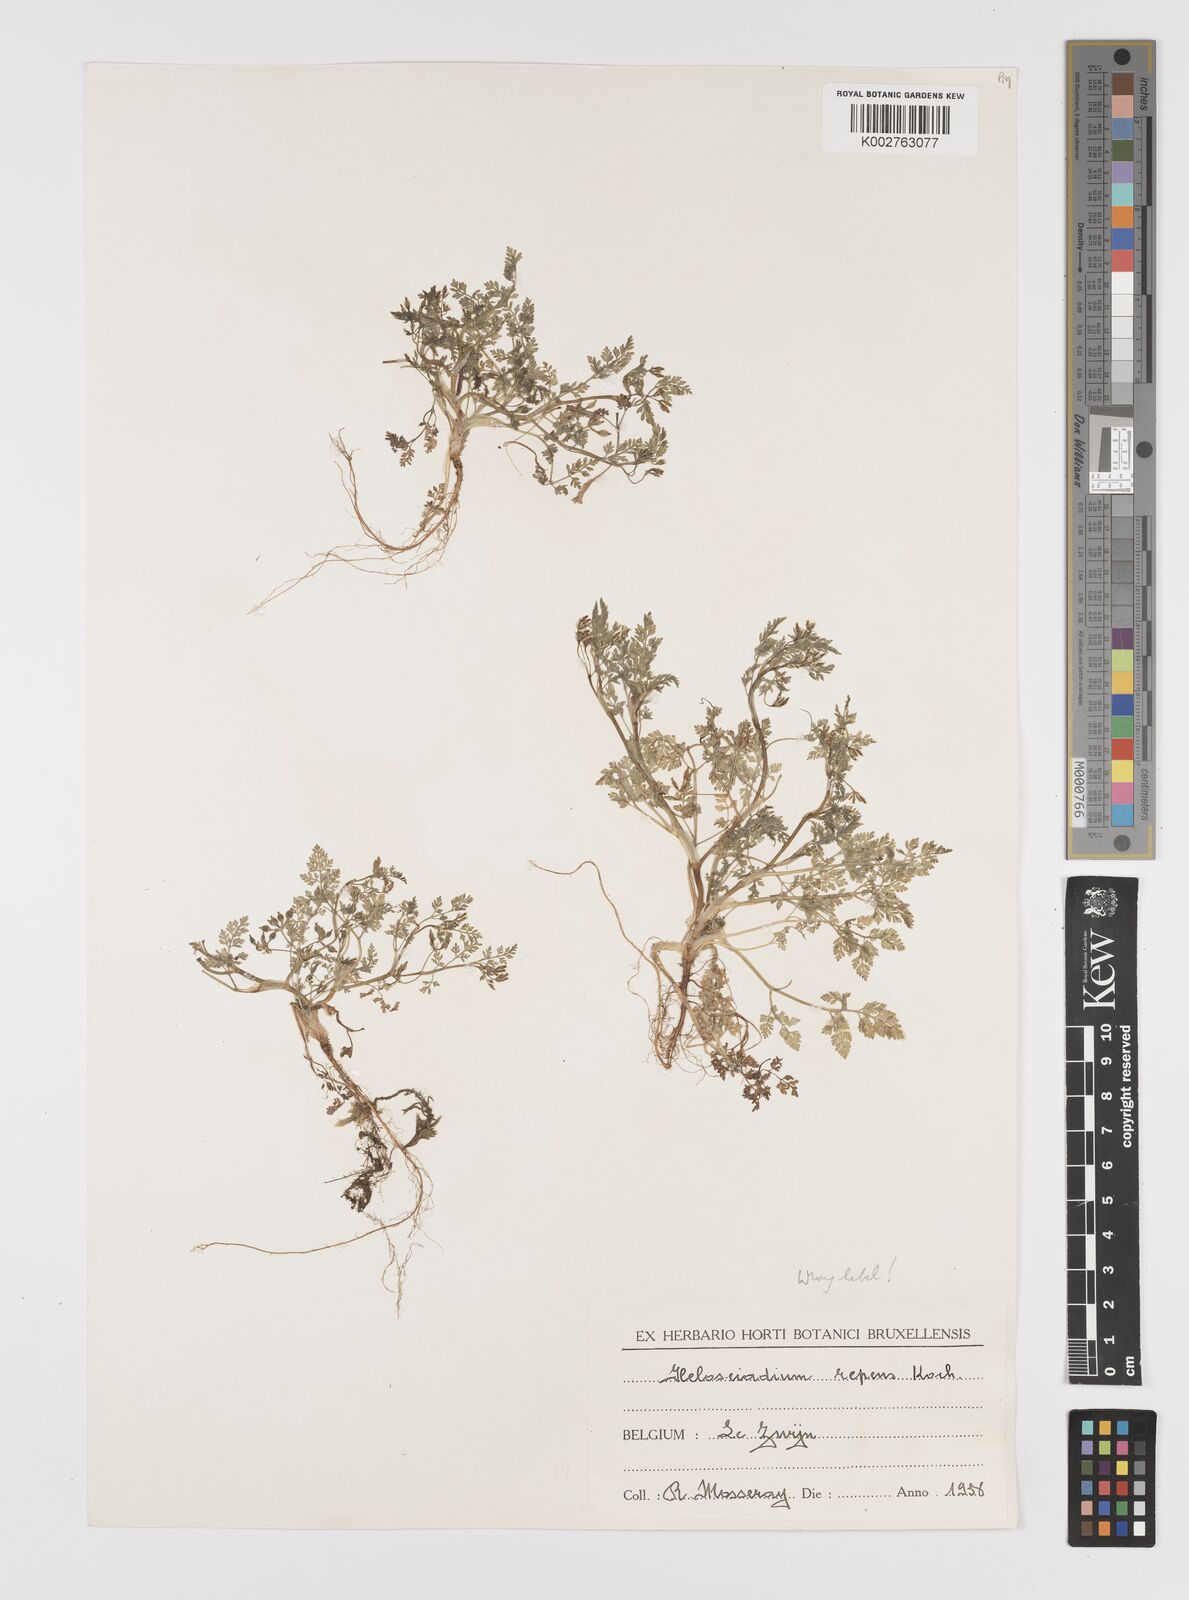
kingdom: Plantae
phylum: Tracheophyta
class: Magnoliopsida
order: Apiales
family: Apiaceae
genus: Anthriscus
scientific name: Anthriscus caucalis
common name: Bur chervil
